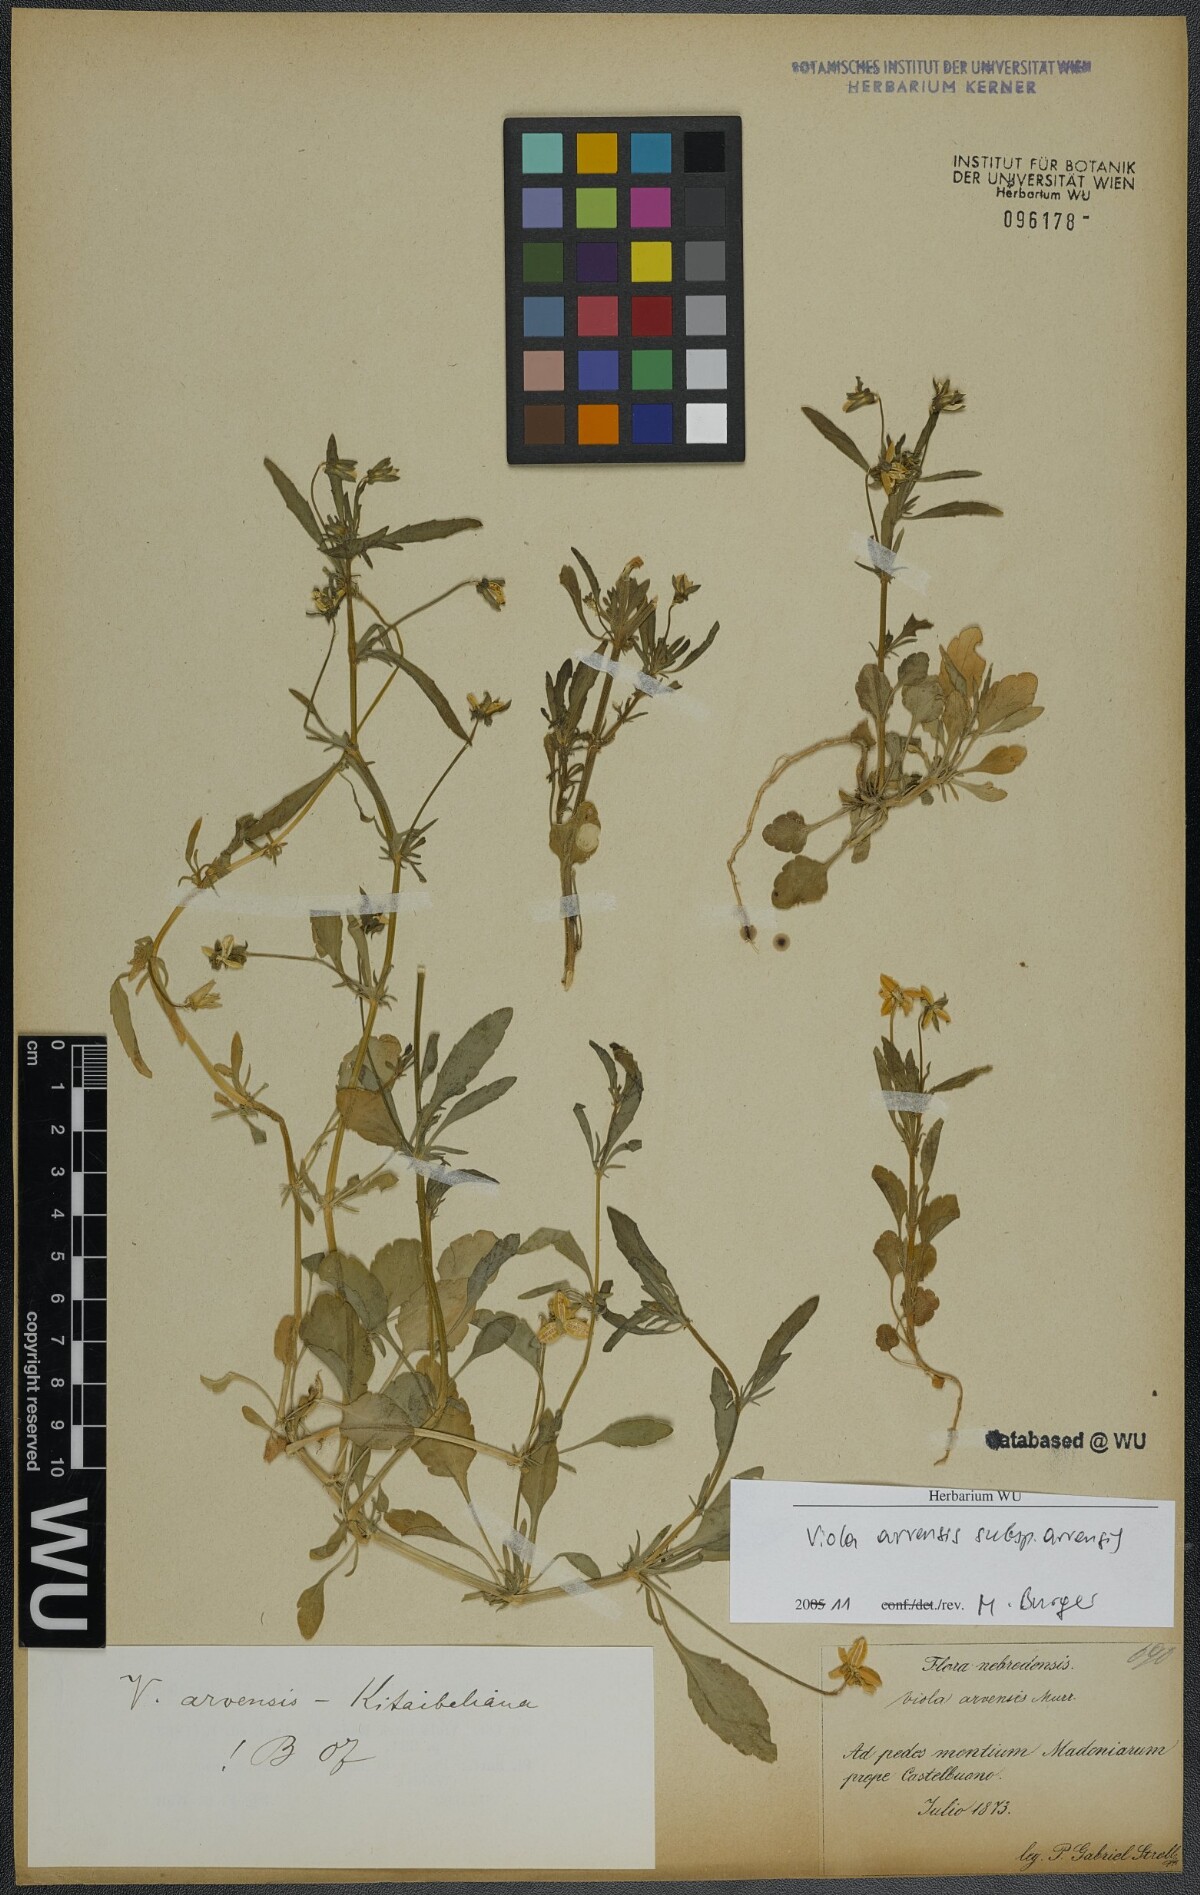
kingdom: Plantae
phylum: Tracheophyta
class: Magnoliopsida
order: Malpighiales
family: Violaceae
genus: Viola
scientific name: Viola arvensis
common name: Field pansy
